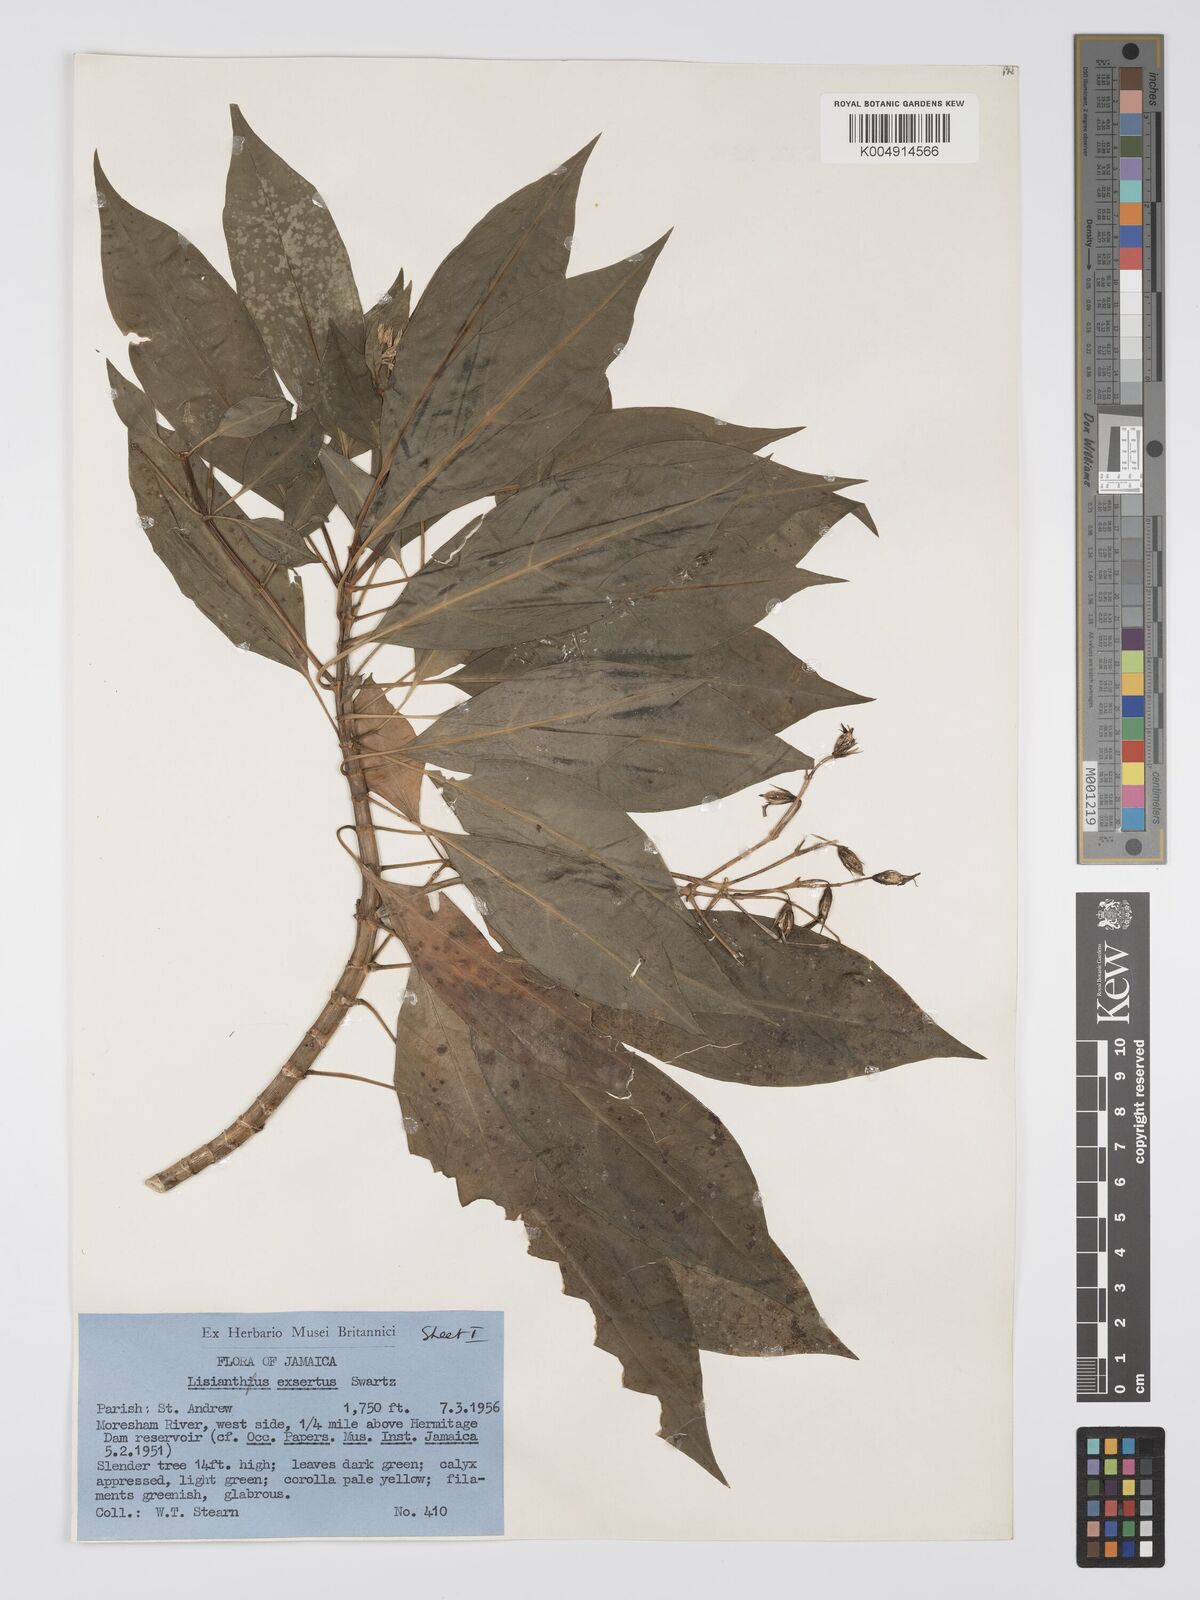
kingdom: Plantae
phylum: Tracheophyta
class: Magnoliopsida
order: Gentianales
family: Gentianaceae
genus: Lisianthus
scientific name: Lisianthus exsertus
